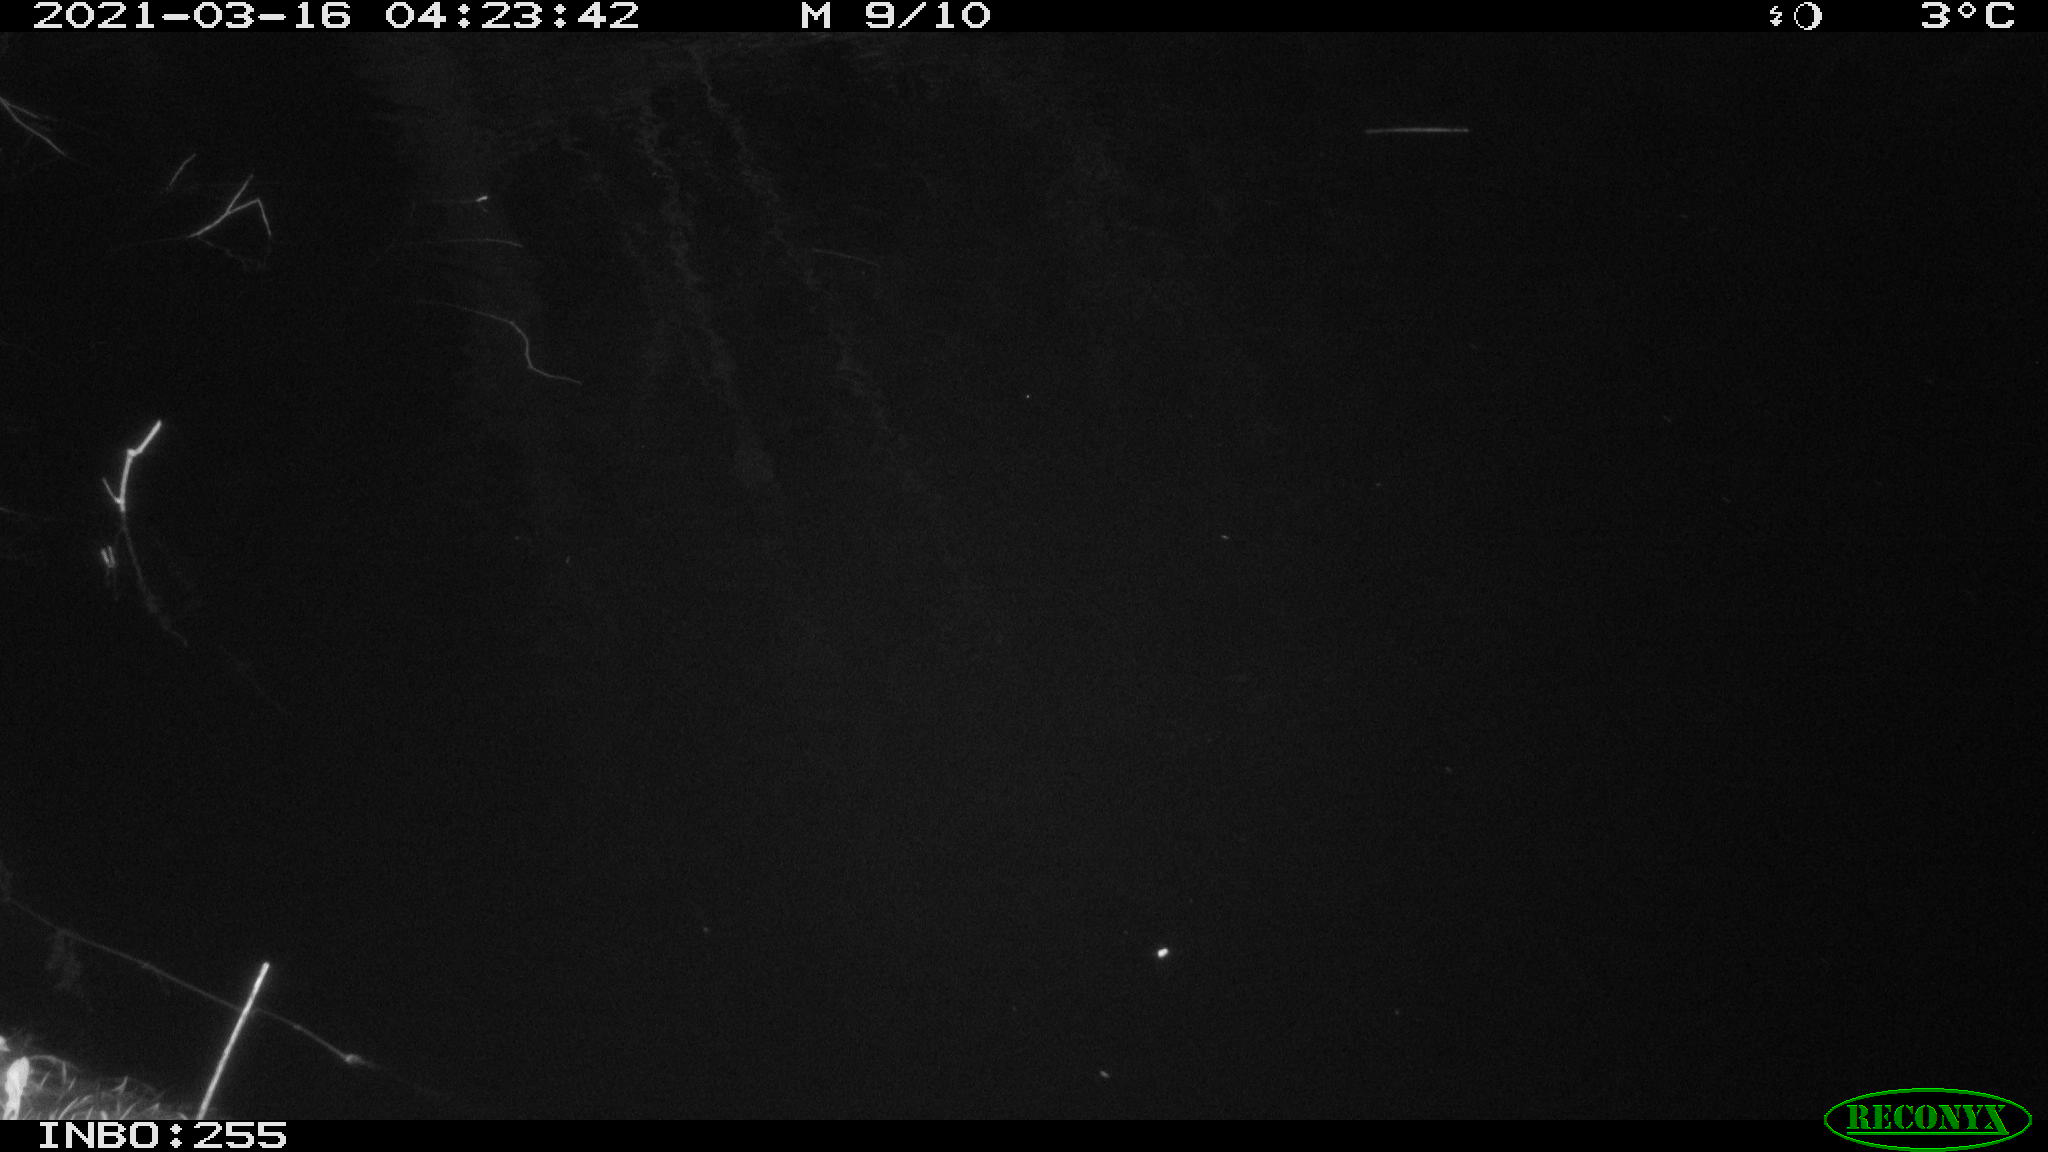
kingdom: Animalia
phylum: Chordata
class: Mammalia
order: Rodentia
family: Muridae
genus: Rattus
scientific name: Rattus norvegicus
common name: Brown rat
